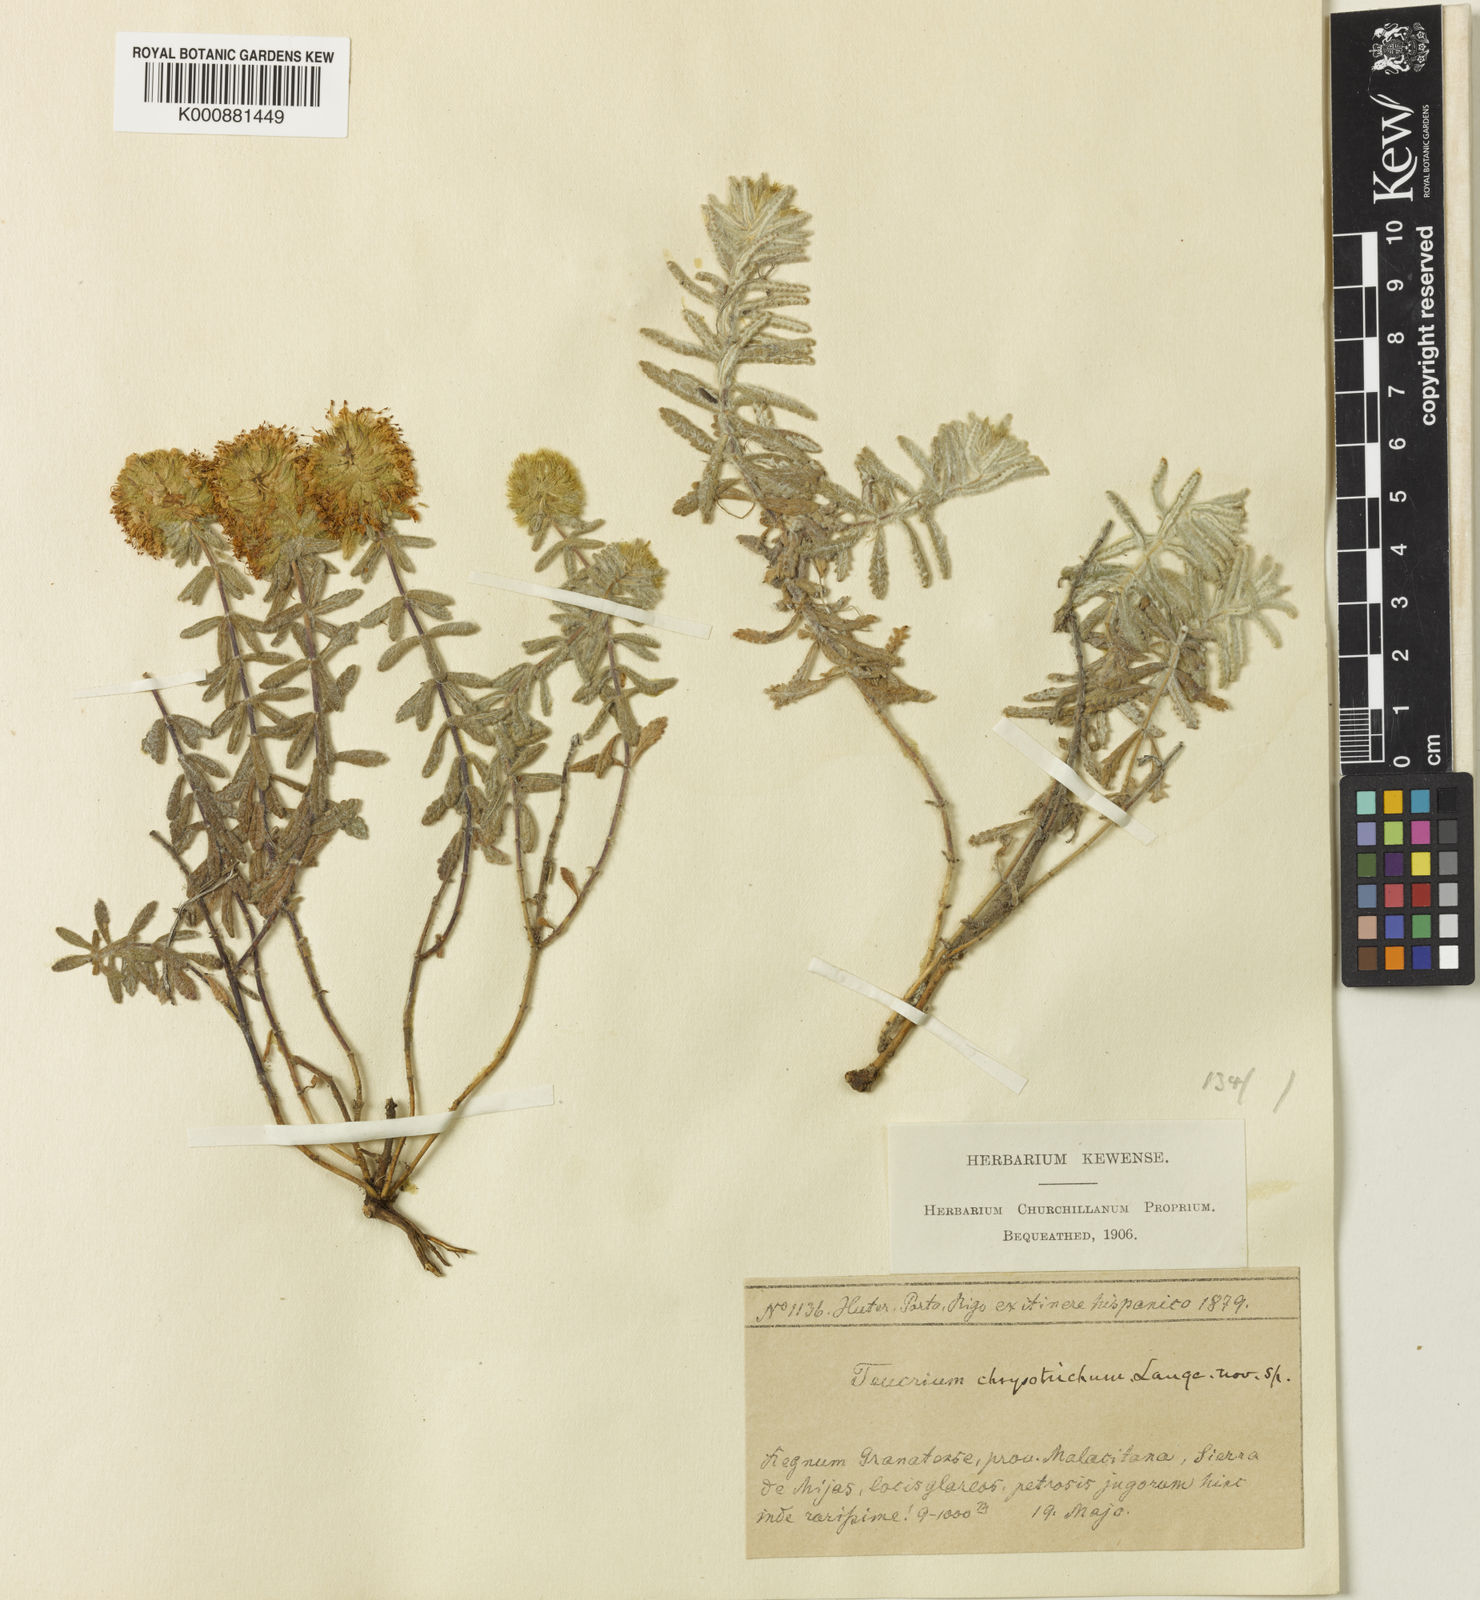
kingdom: Plantae
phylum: Tracheophyta
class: Magnoliopsida
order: Lamiales
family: Lamiaceae
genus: Teucrium
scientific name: Teucrium haenseleri
